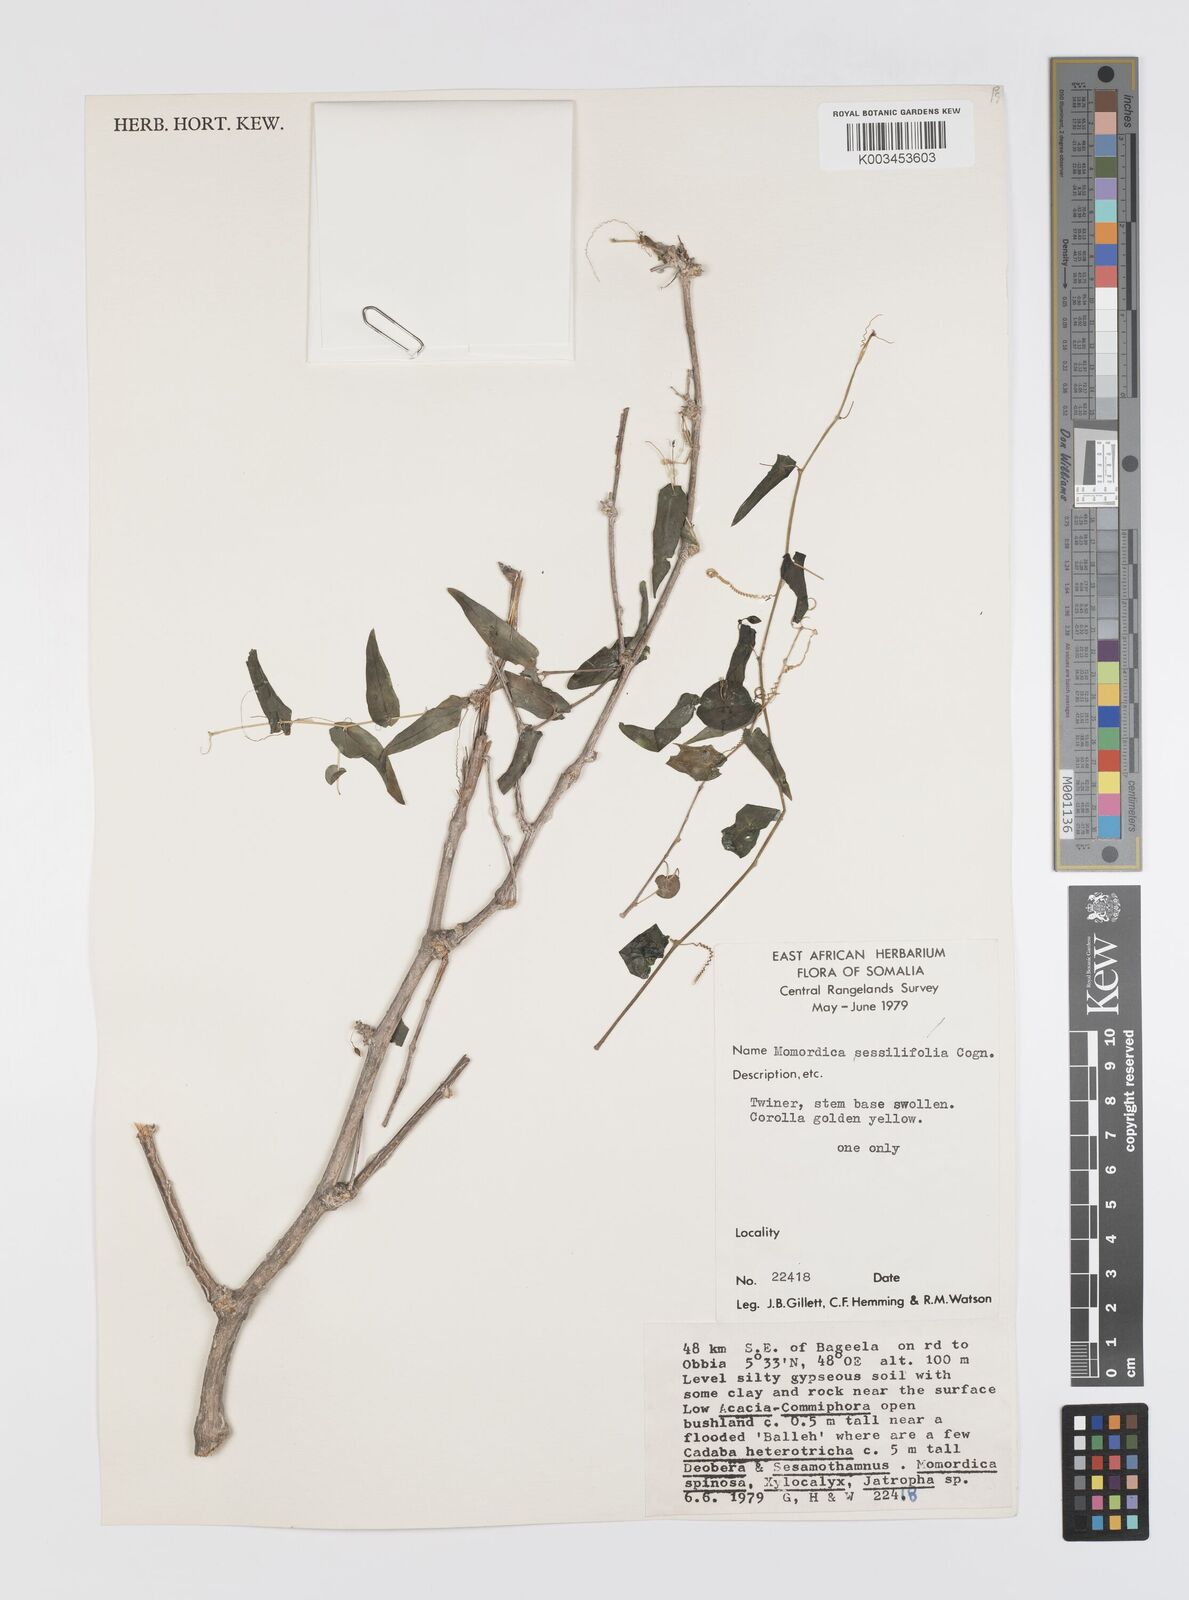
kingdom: Plantae
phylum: Tracheophyta
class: Magnoliopsida
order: Cucurbitales
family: Cucurbitaceae
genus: Momordica
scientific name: Momordica sessilifolia
